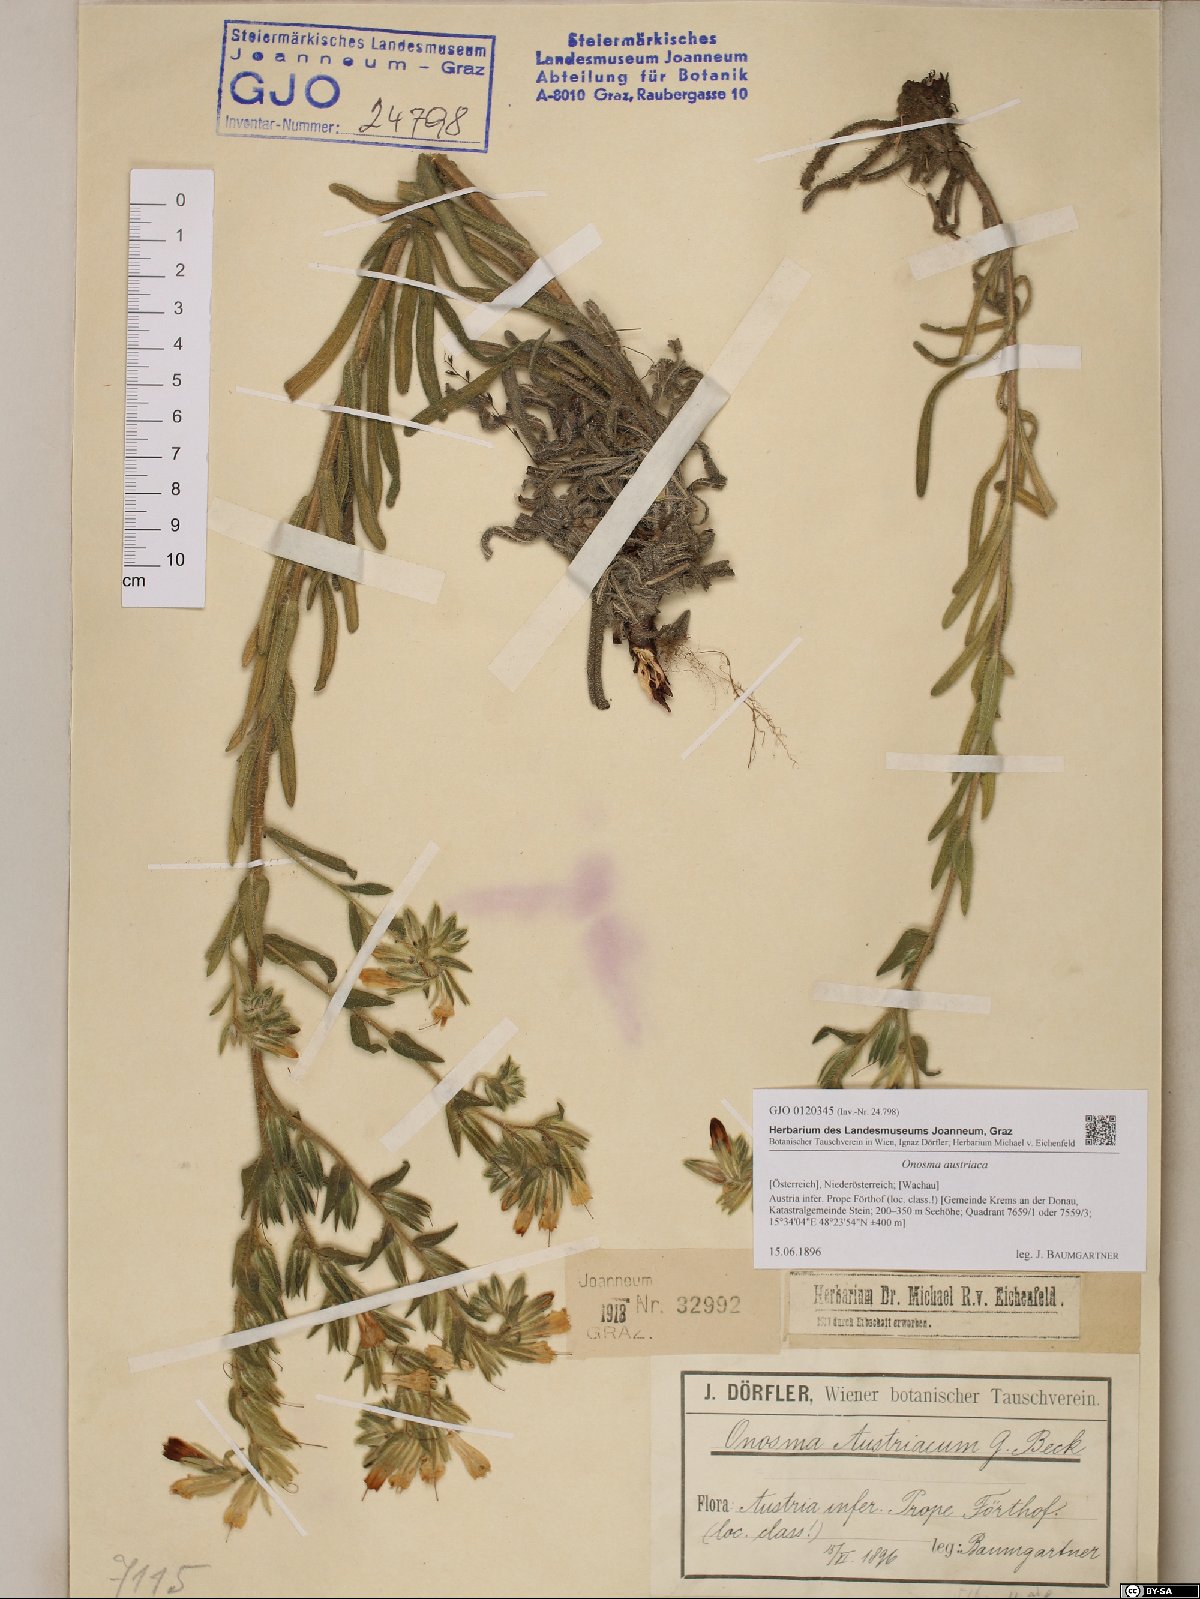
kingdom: Plantae
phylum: Tracheophyta
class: Magnoliopsida
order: Boraginales
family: Boraginaceae
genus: Onosma
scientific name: Onosma arenaria
